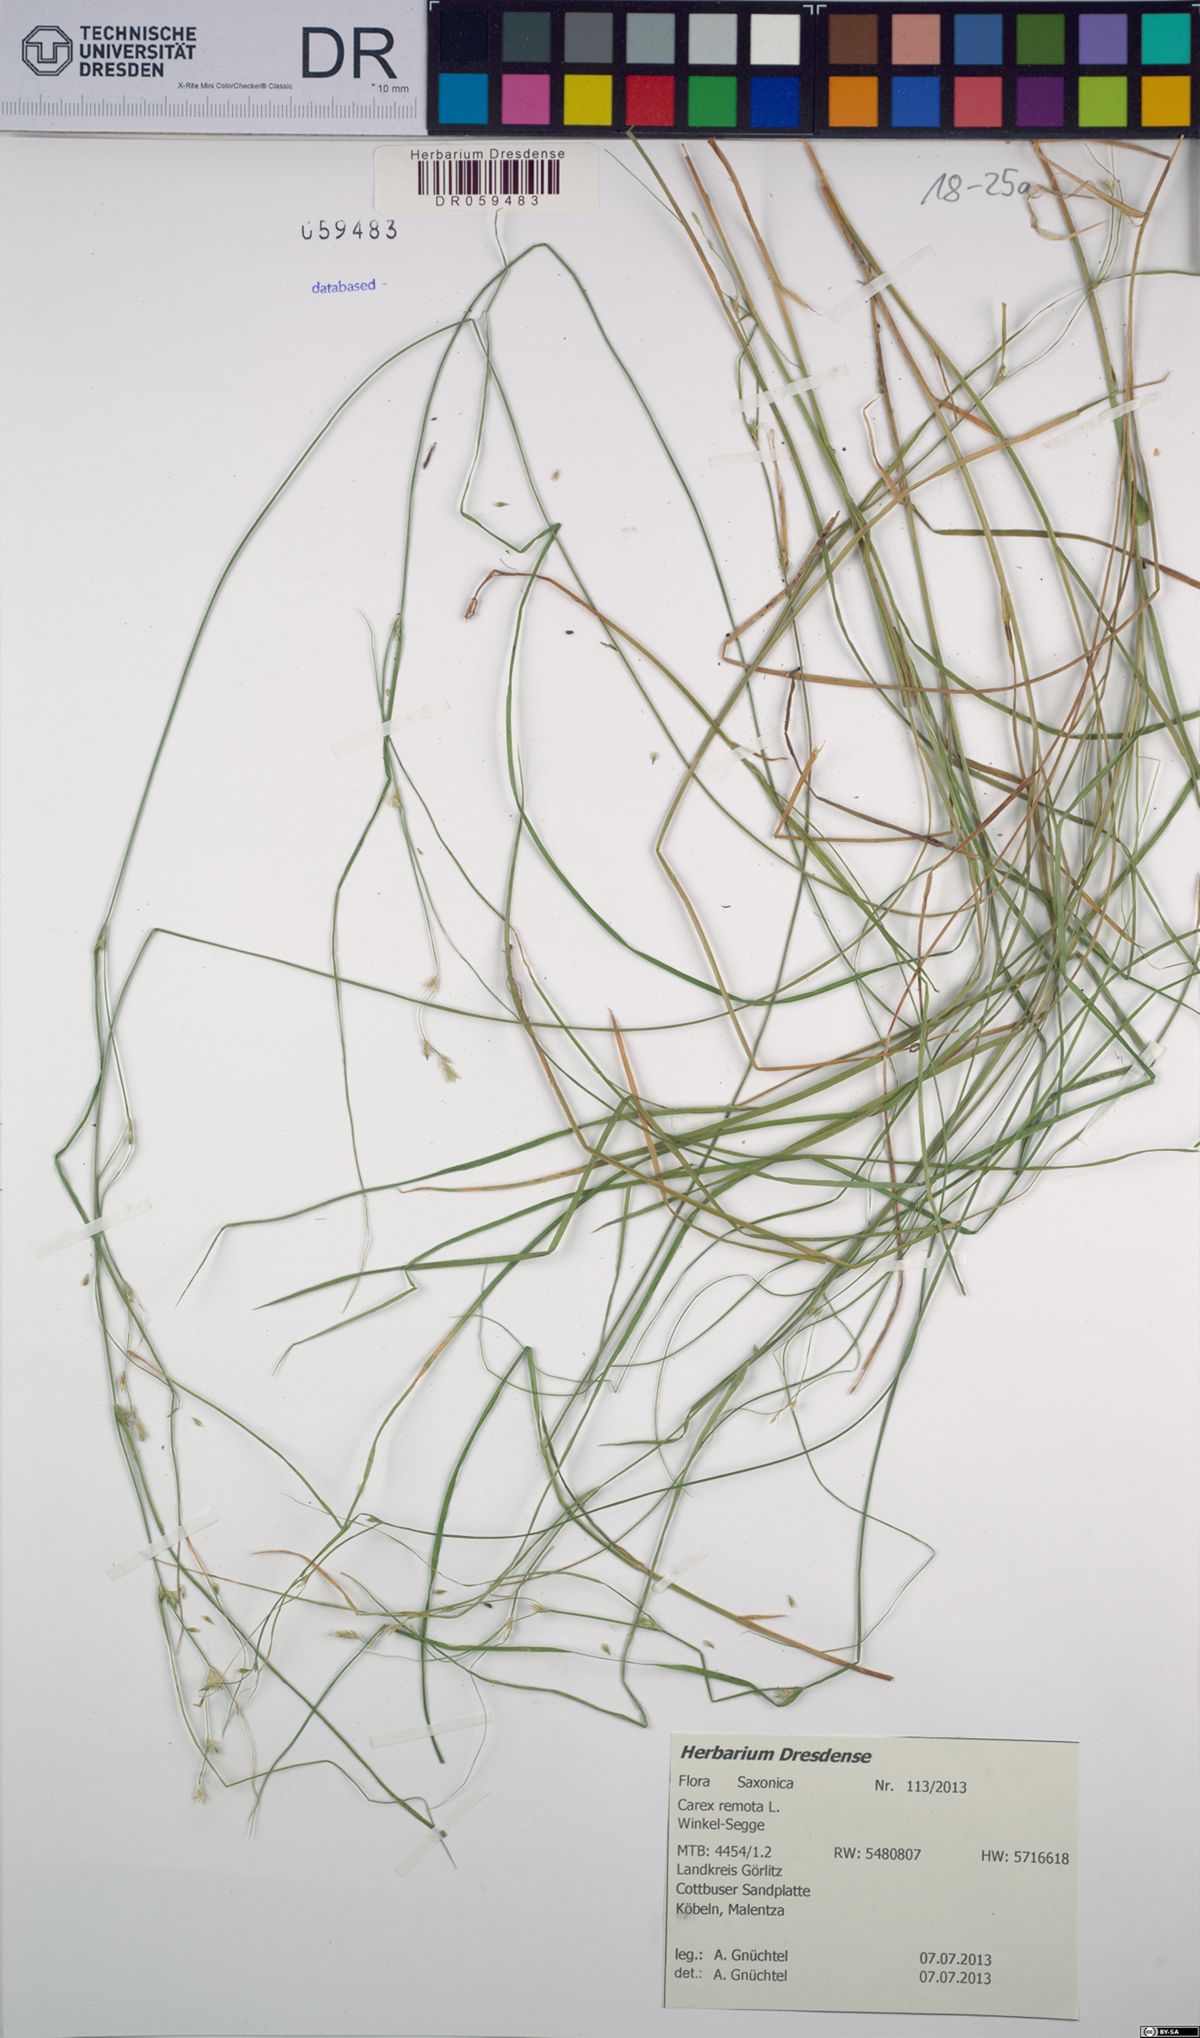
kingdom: Plantae
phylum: Tracheophyta
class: Liliopsida
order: Poales
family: Cyperaceae
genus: Carex
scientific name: Carex remota
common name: Remote sedge
